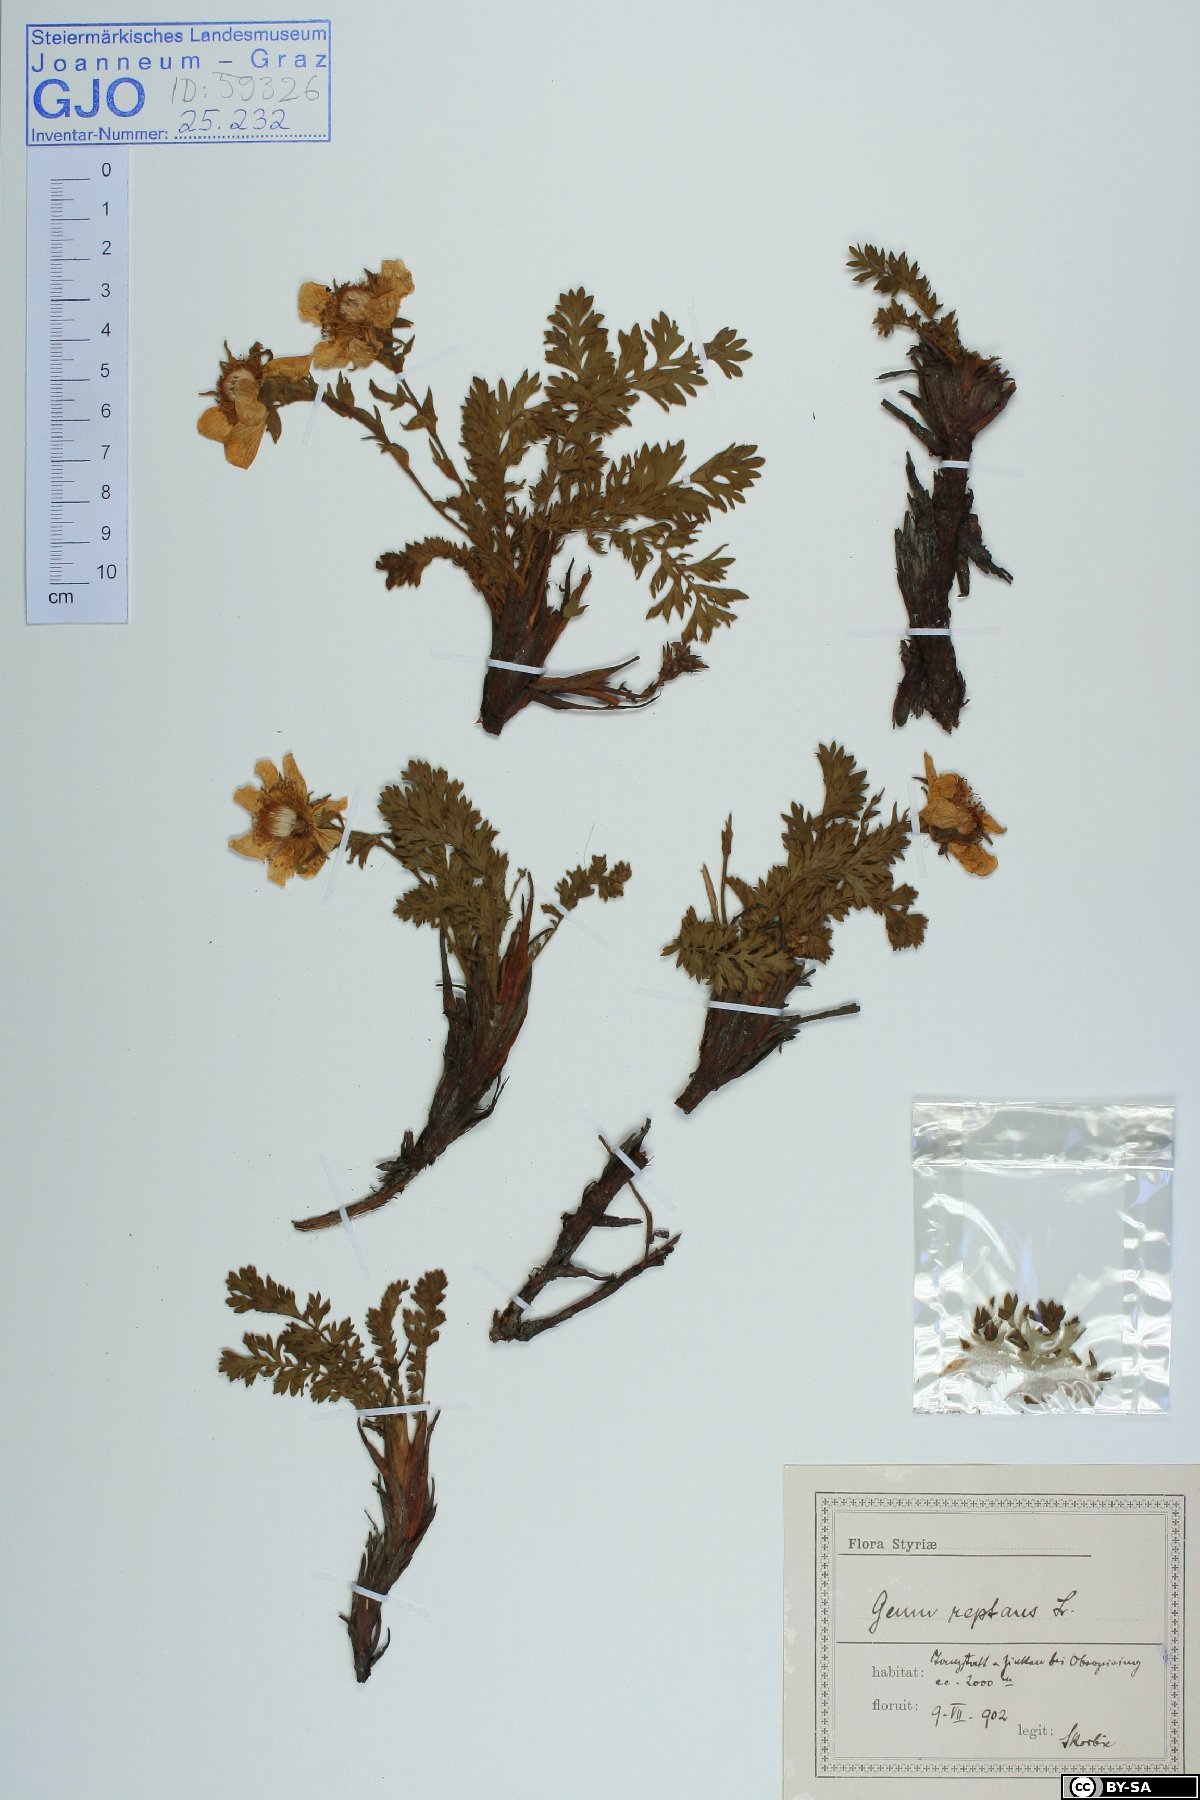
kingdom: Plantae
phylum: Tracheophyta
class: Magnoliopsida
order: Rosales
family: Rosaceae
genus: Geum
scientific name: Geum reptans
